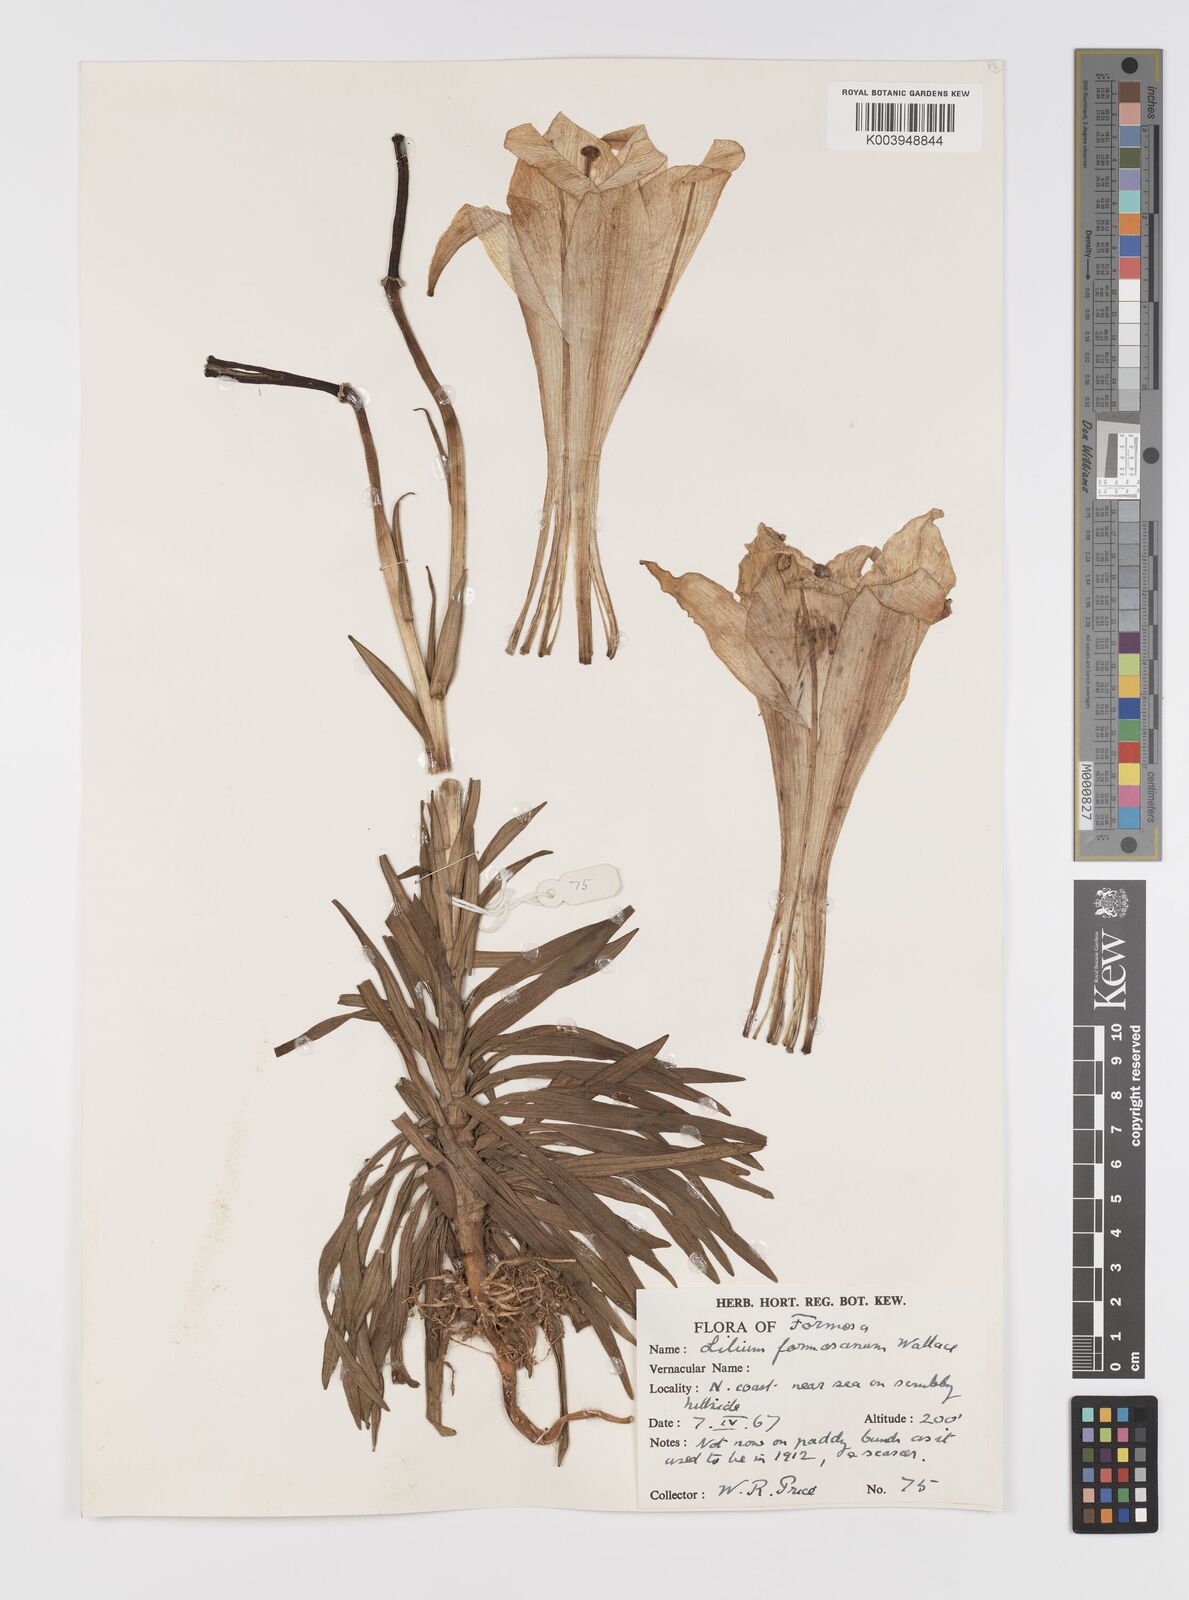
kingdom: Plantae
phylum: Tracheophyta
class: Liliopsida
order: Liliales
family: Liliaceae
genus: Lilium
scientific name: Lilium formosanum
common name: Formosa lily
